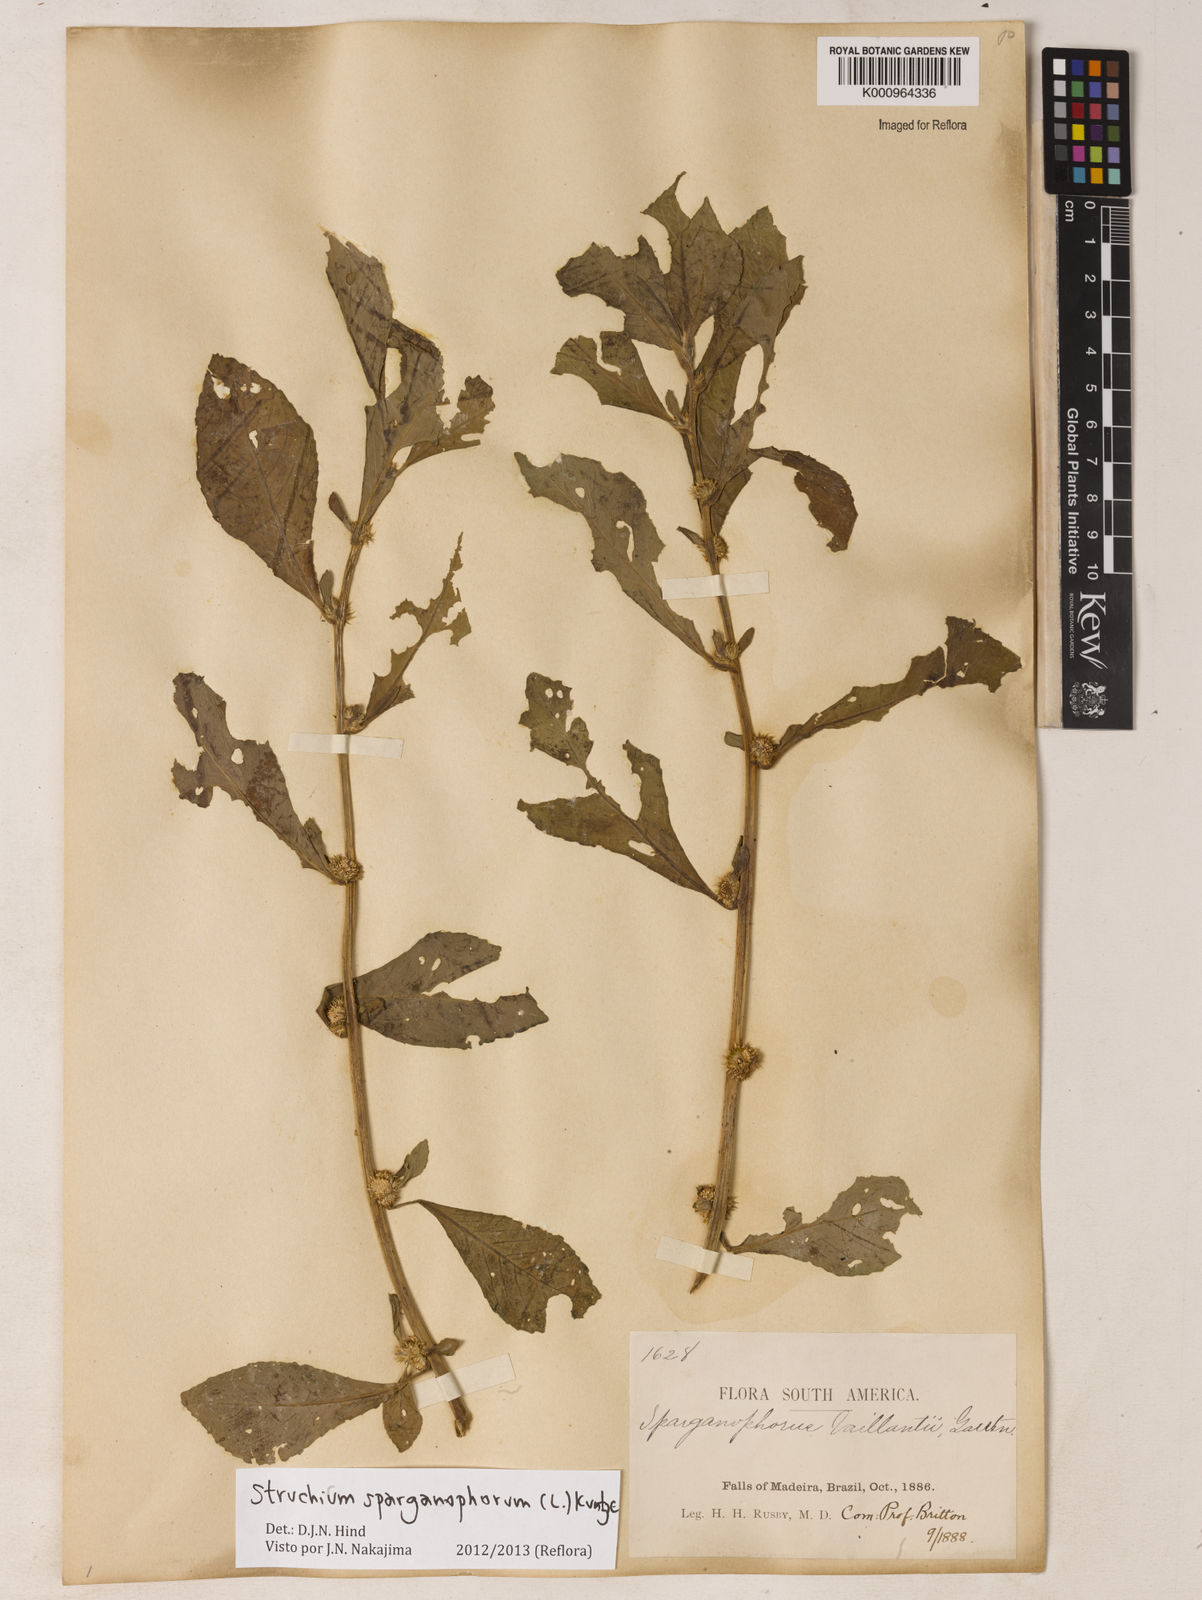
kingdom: Plantae
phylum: Tracheophyta
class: Magnoliopsida
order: Asterales
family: Asteraceae
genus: Struchium
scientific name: Struchium sparganophorum
